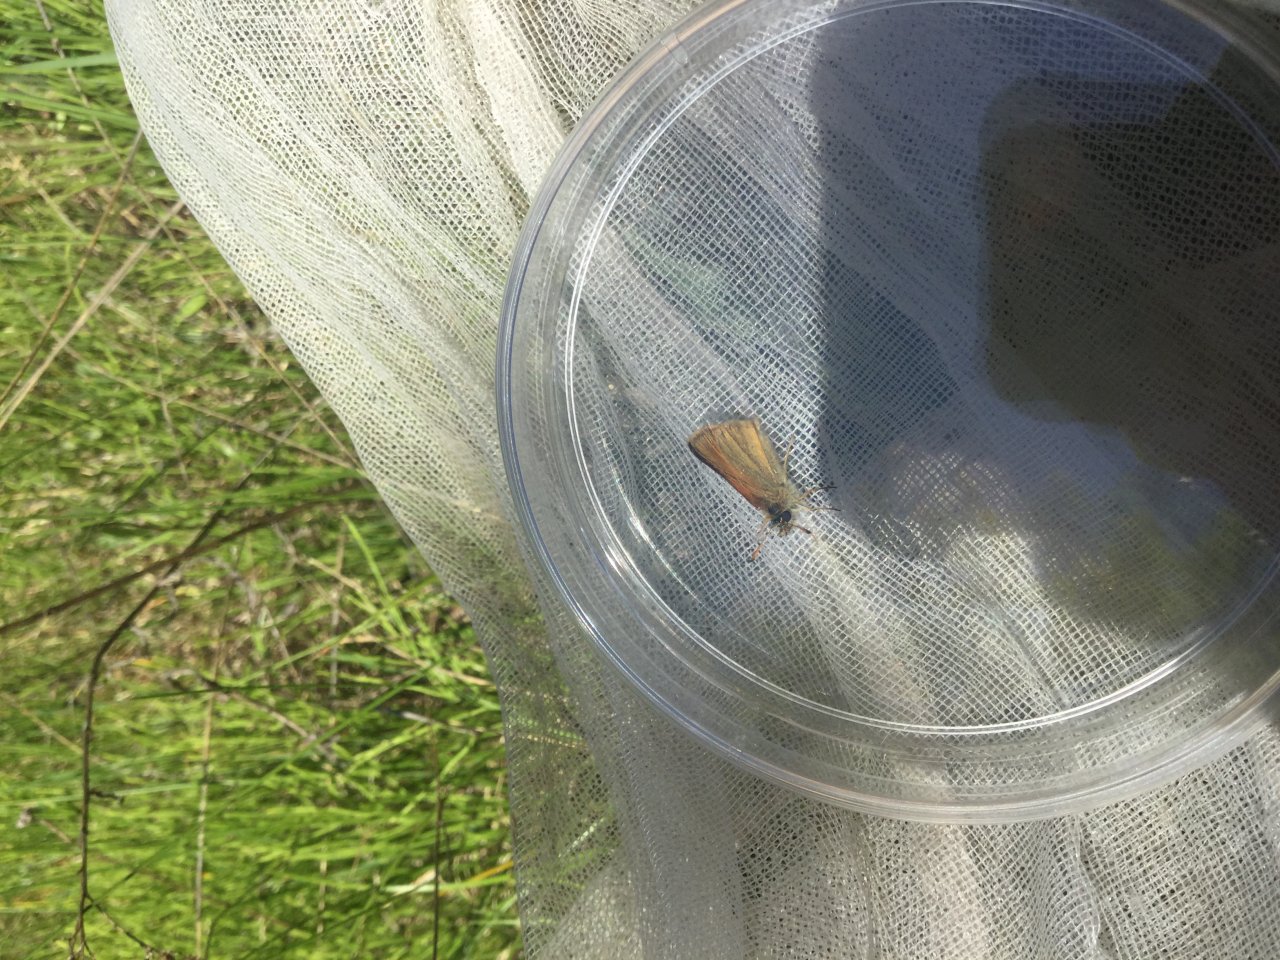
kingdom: Animalia
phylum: Arthropoda
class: Insecta
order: Lepidoptera
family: Hesperiidae
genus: Thymelicus
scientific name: Thymelicus lineola
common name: European Skipper
